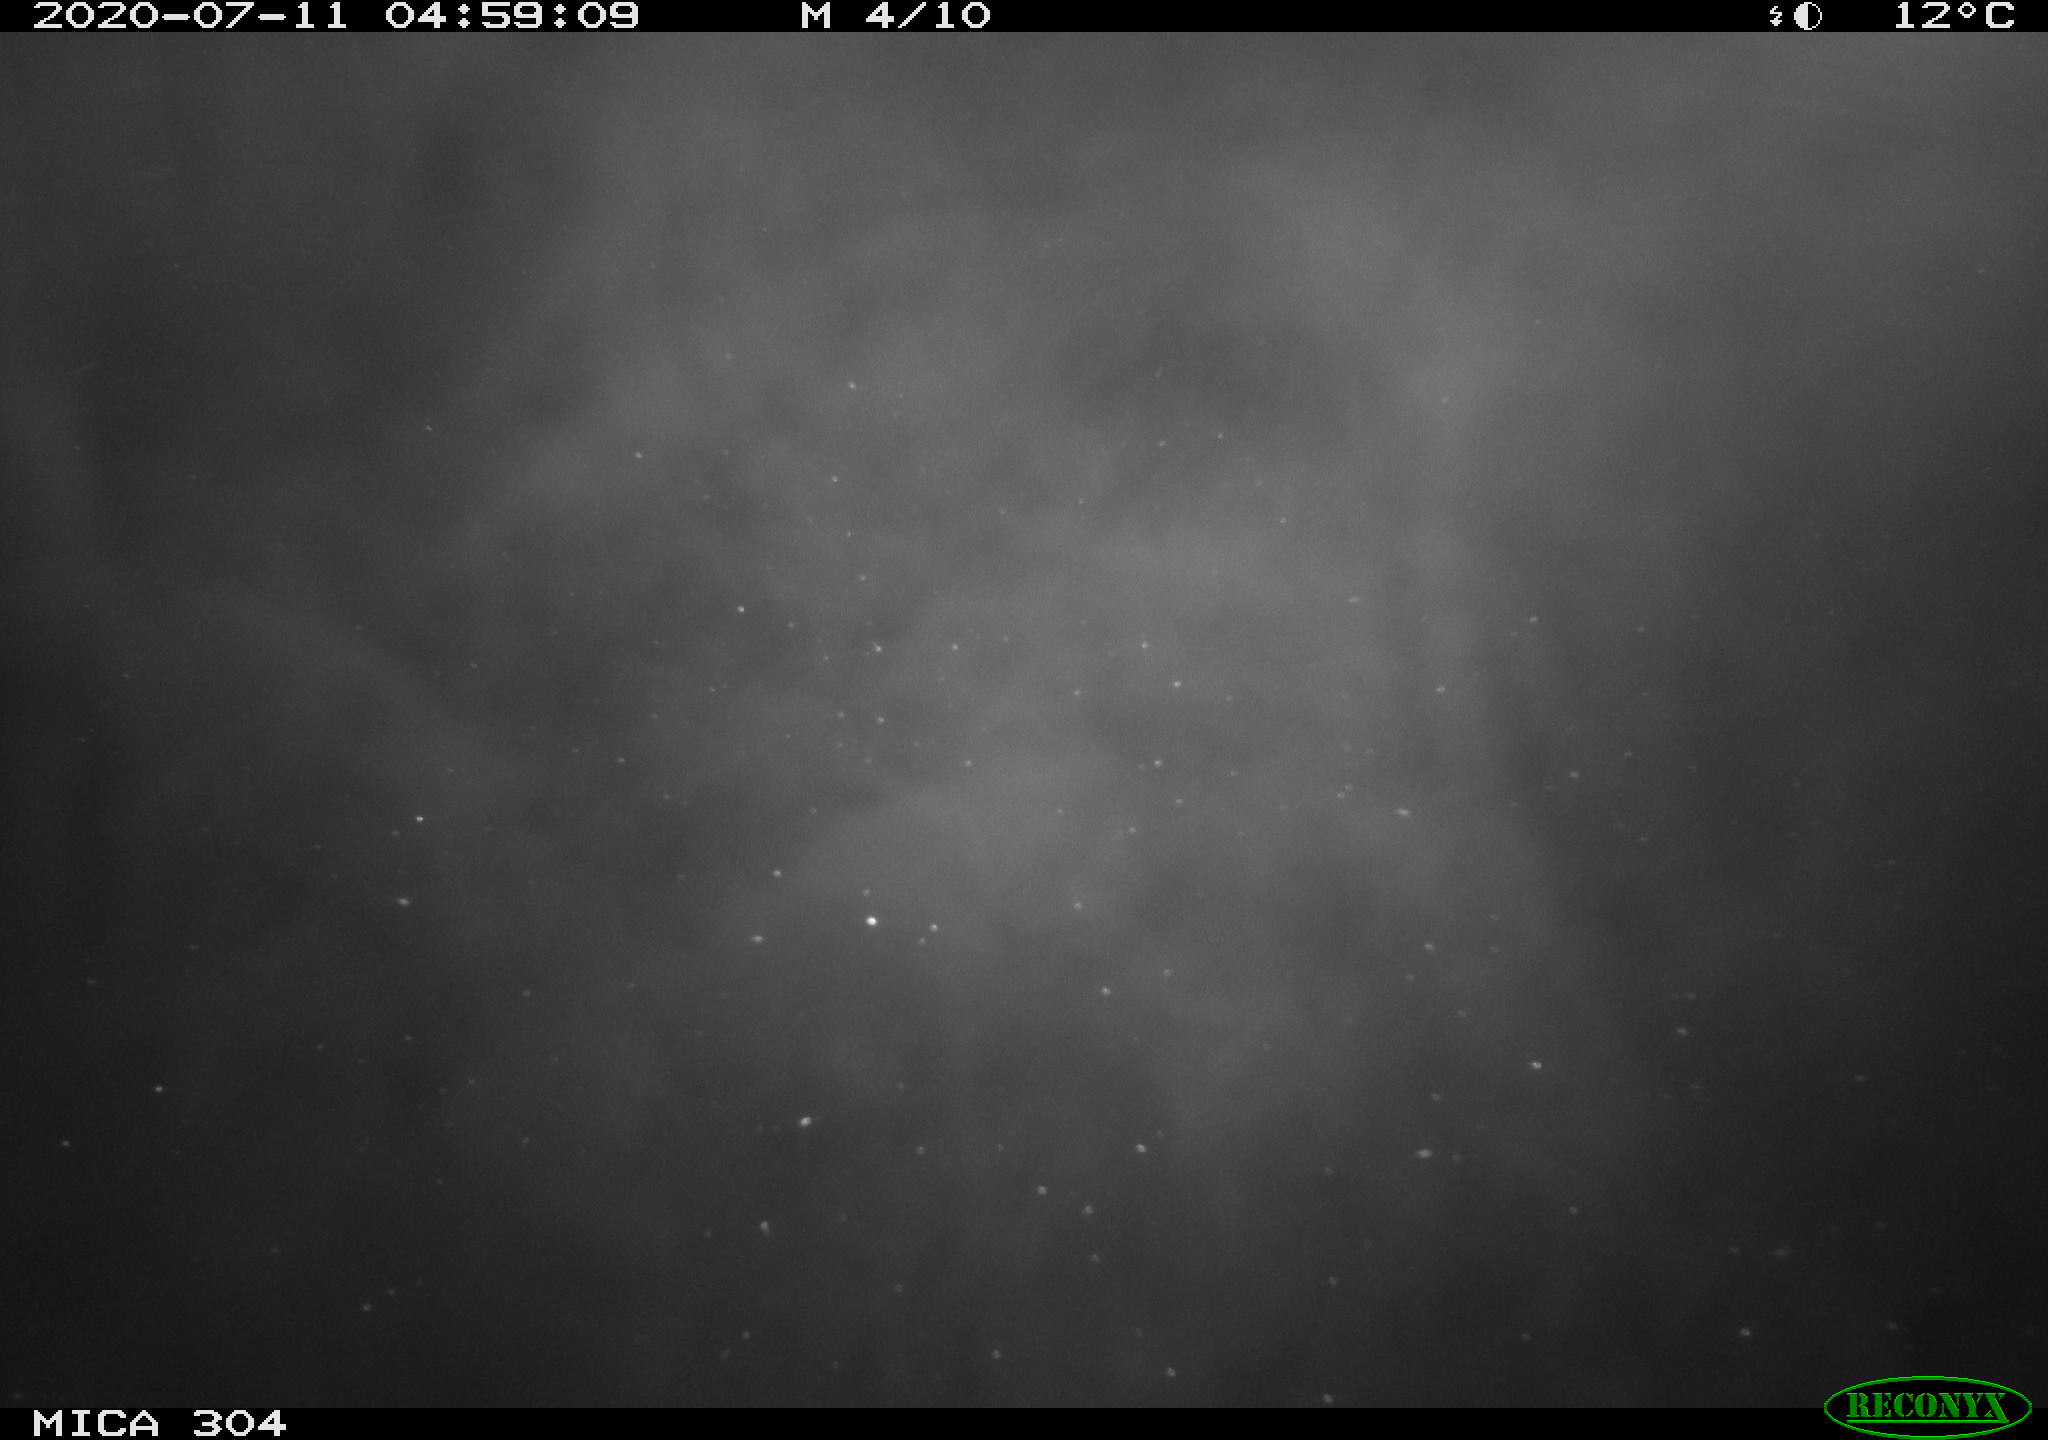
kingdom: Animalia
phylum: Chordata
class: Aves
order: Anseriformes
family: Anatidae
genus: Anas
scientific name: Anas platyrhynchos
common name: Mallard
